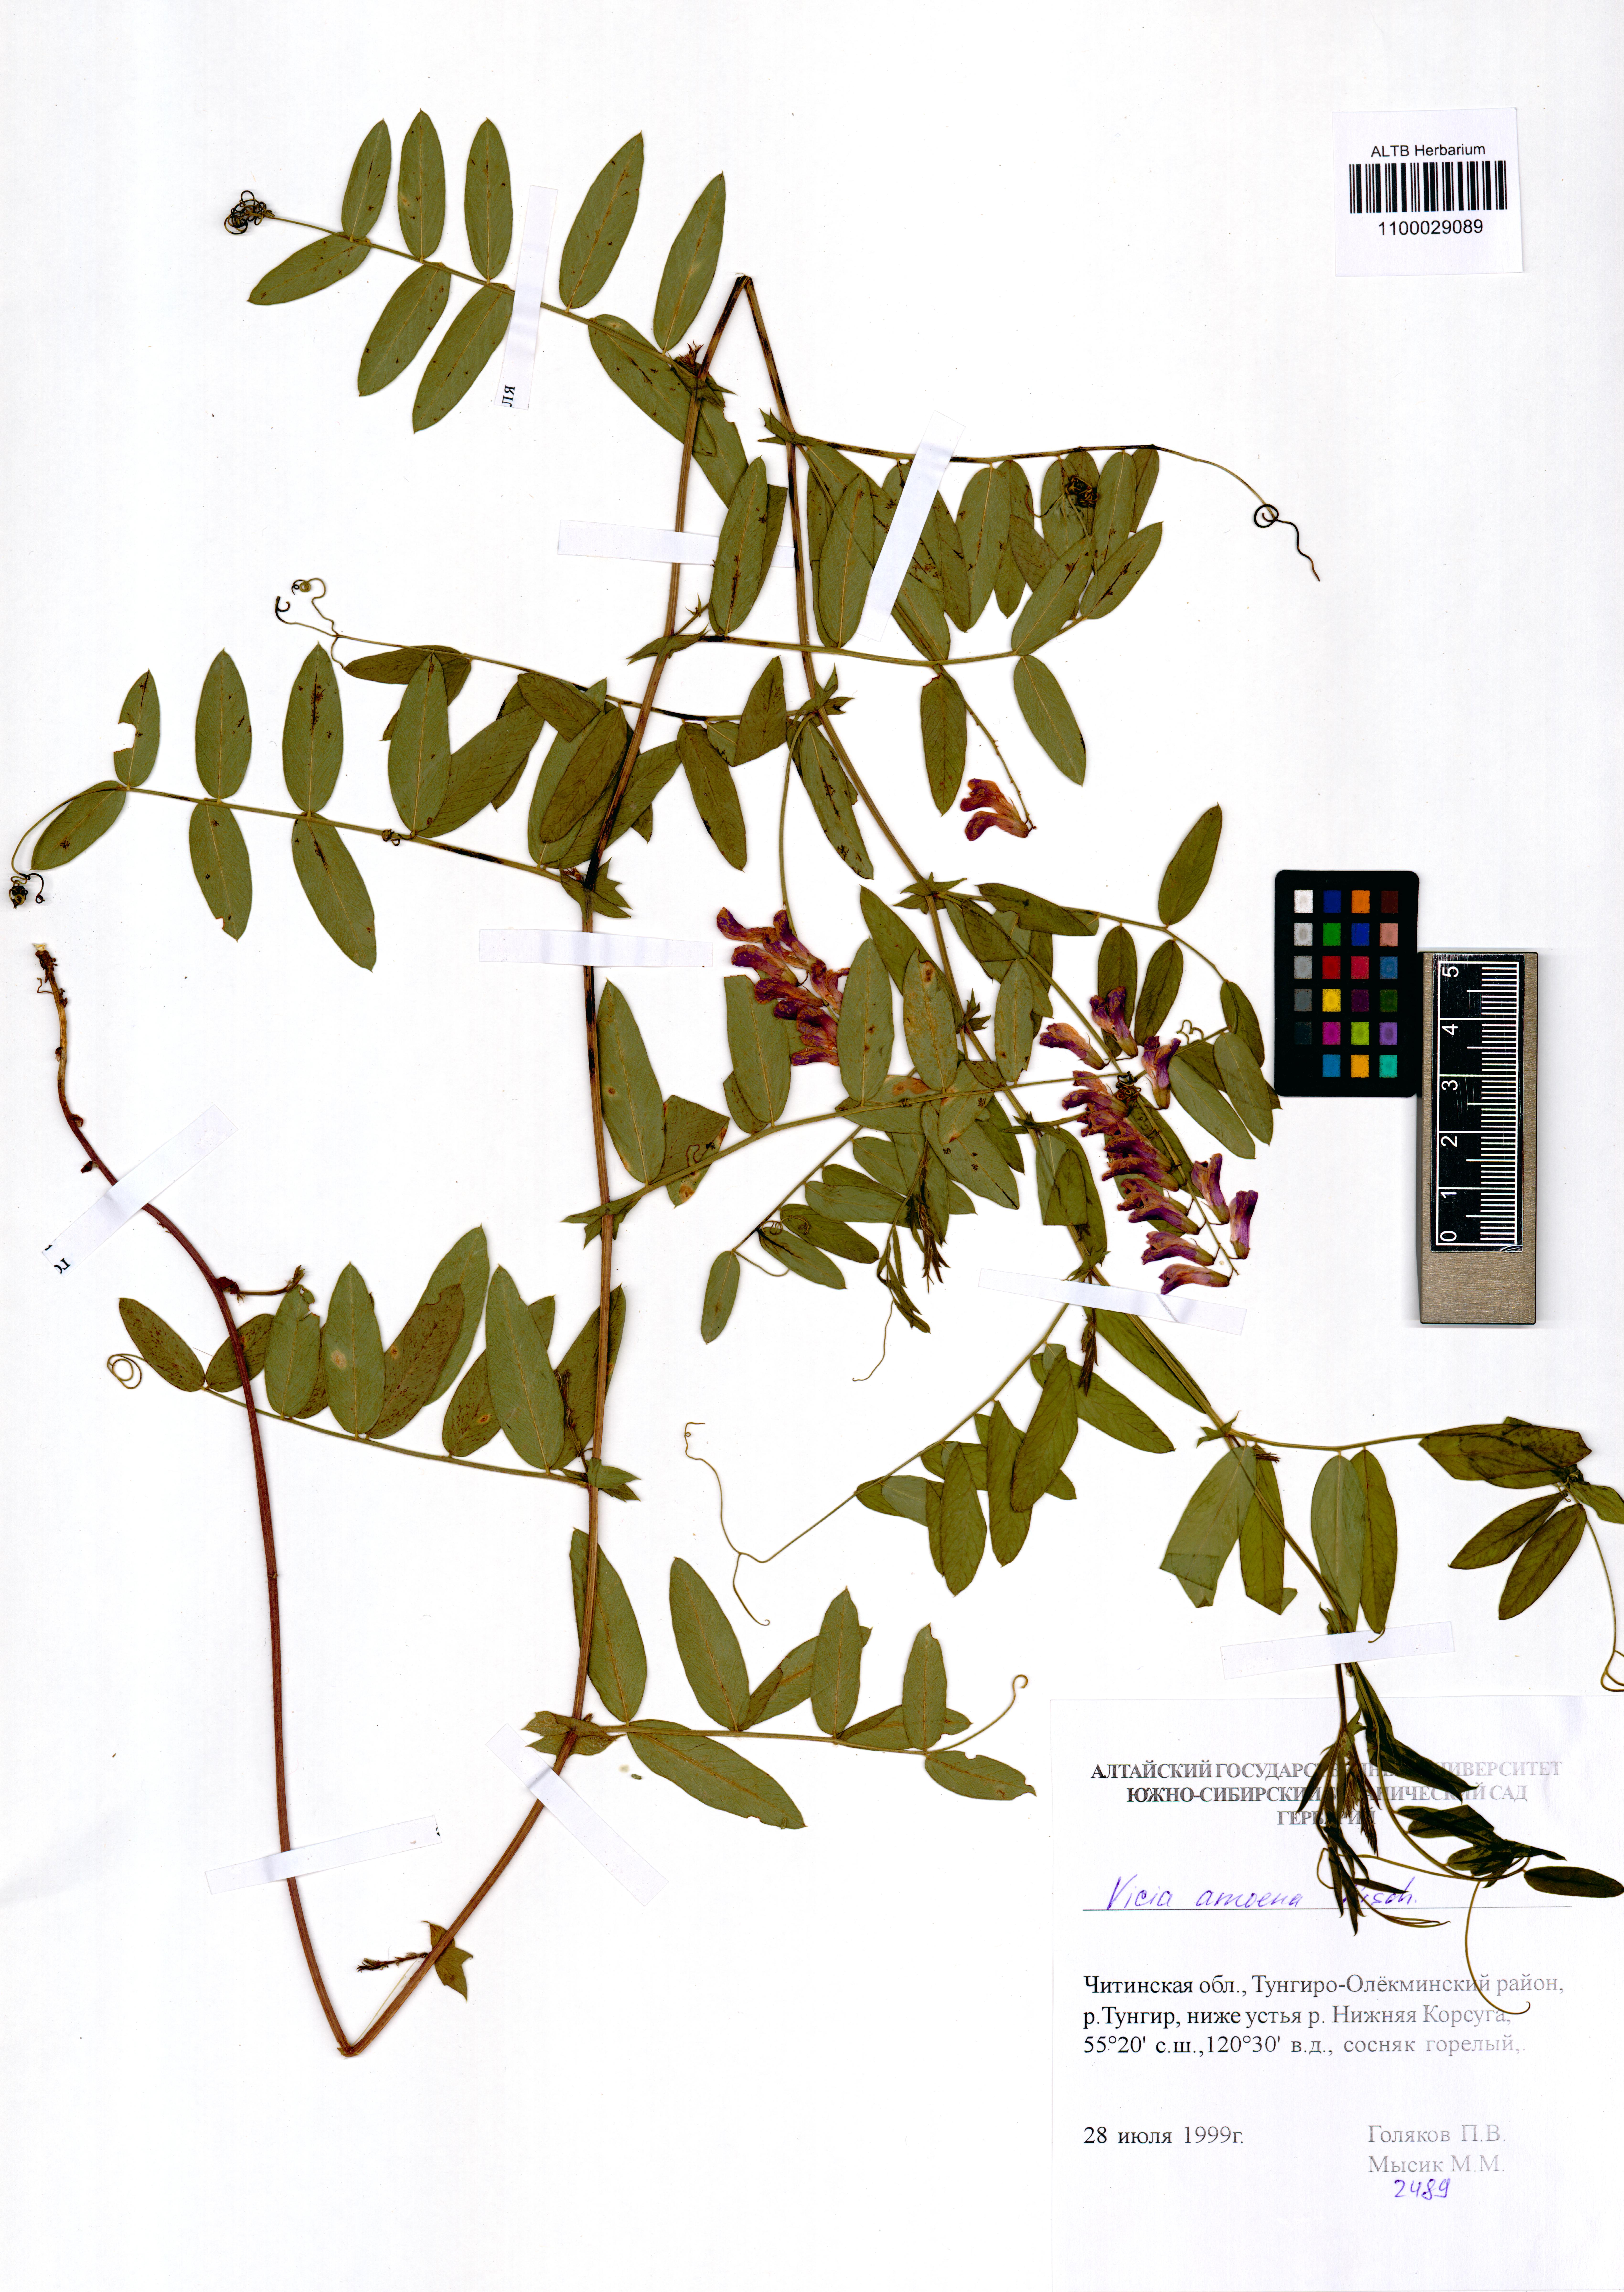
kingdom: Plantae
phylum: Tracheophyta
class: Magnoliopsida
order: Fabales
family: Fabaceae
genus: Vicia
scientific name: Vicia amoena
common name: Cheder ebs
